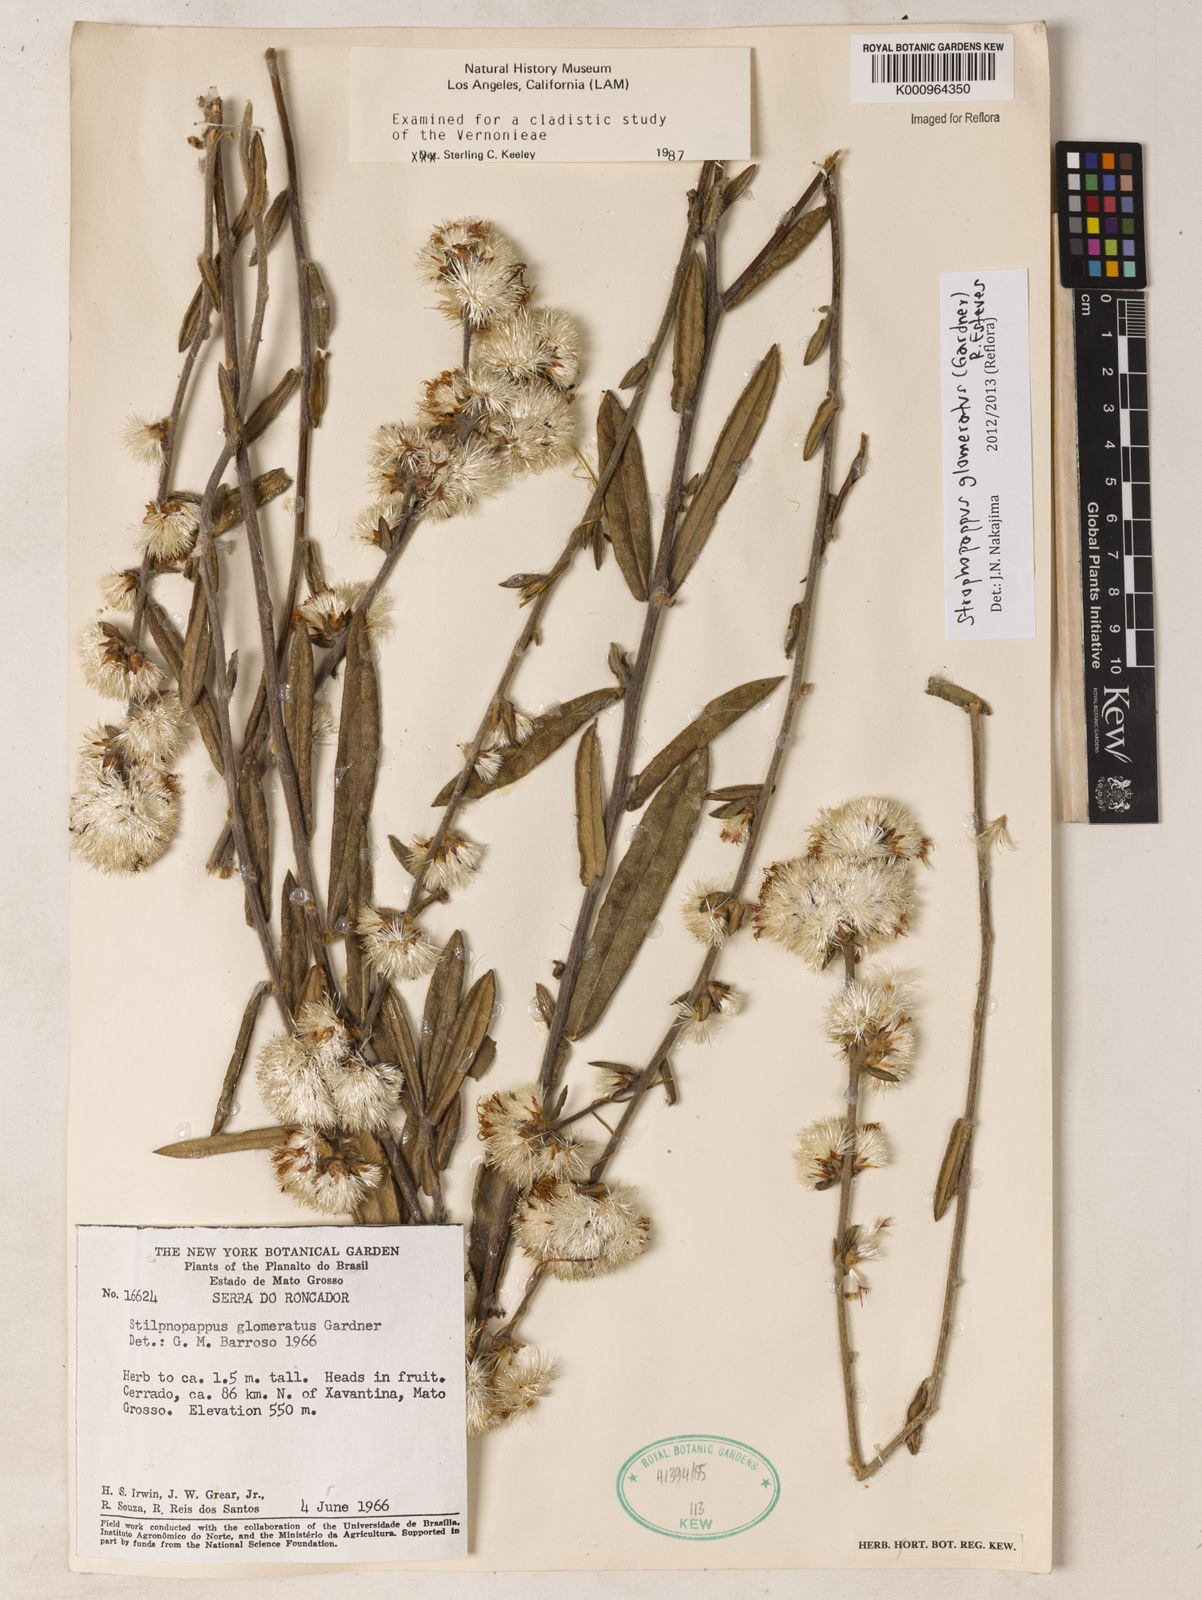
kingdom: Plantae
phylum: Tracheophyta
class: Magnoliopsida
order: Asterales
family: Asteraceae
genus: Stilpnopappus
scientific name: Stilpnopappus glomeratus
